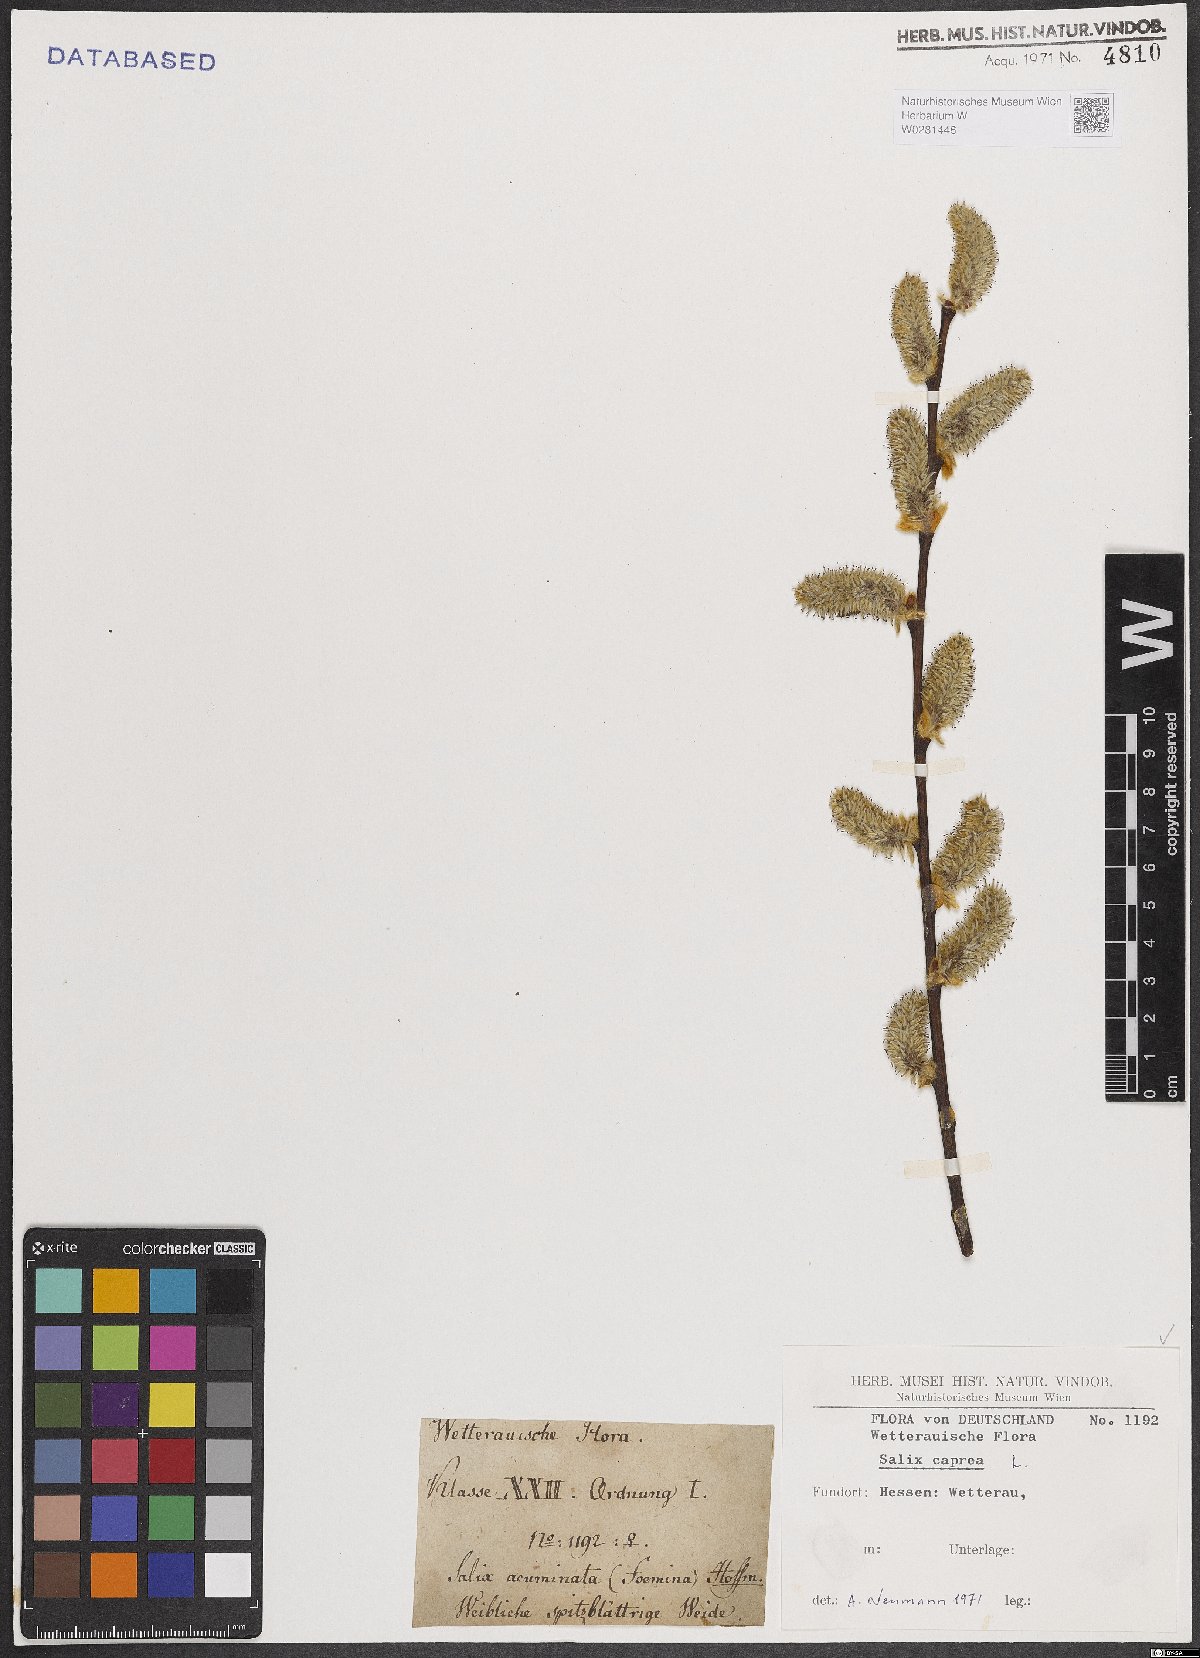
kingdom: Plantae
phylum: Tracheophyta
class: Magnoliopsida
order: Malpighiales
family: Salicaceae
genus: Salix
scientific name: Salix caprea
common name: Goat willow
